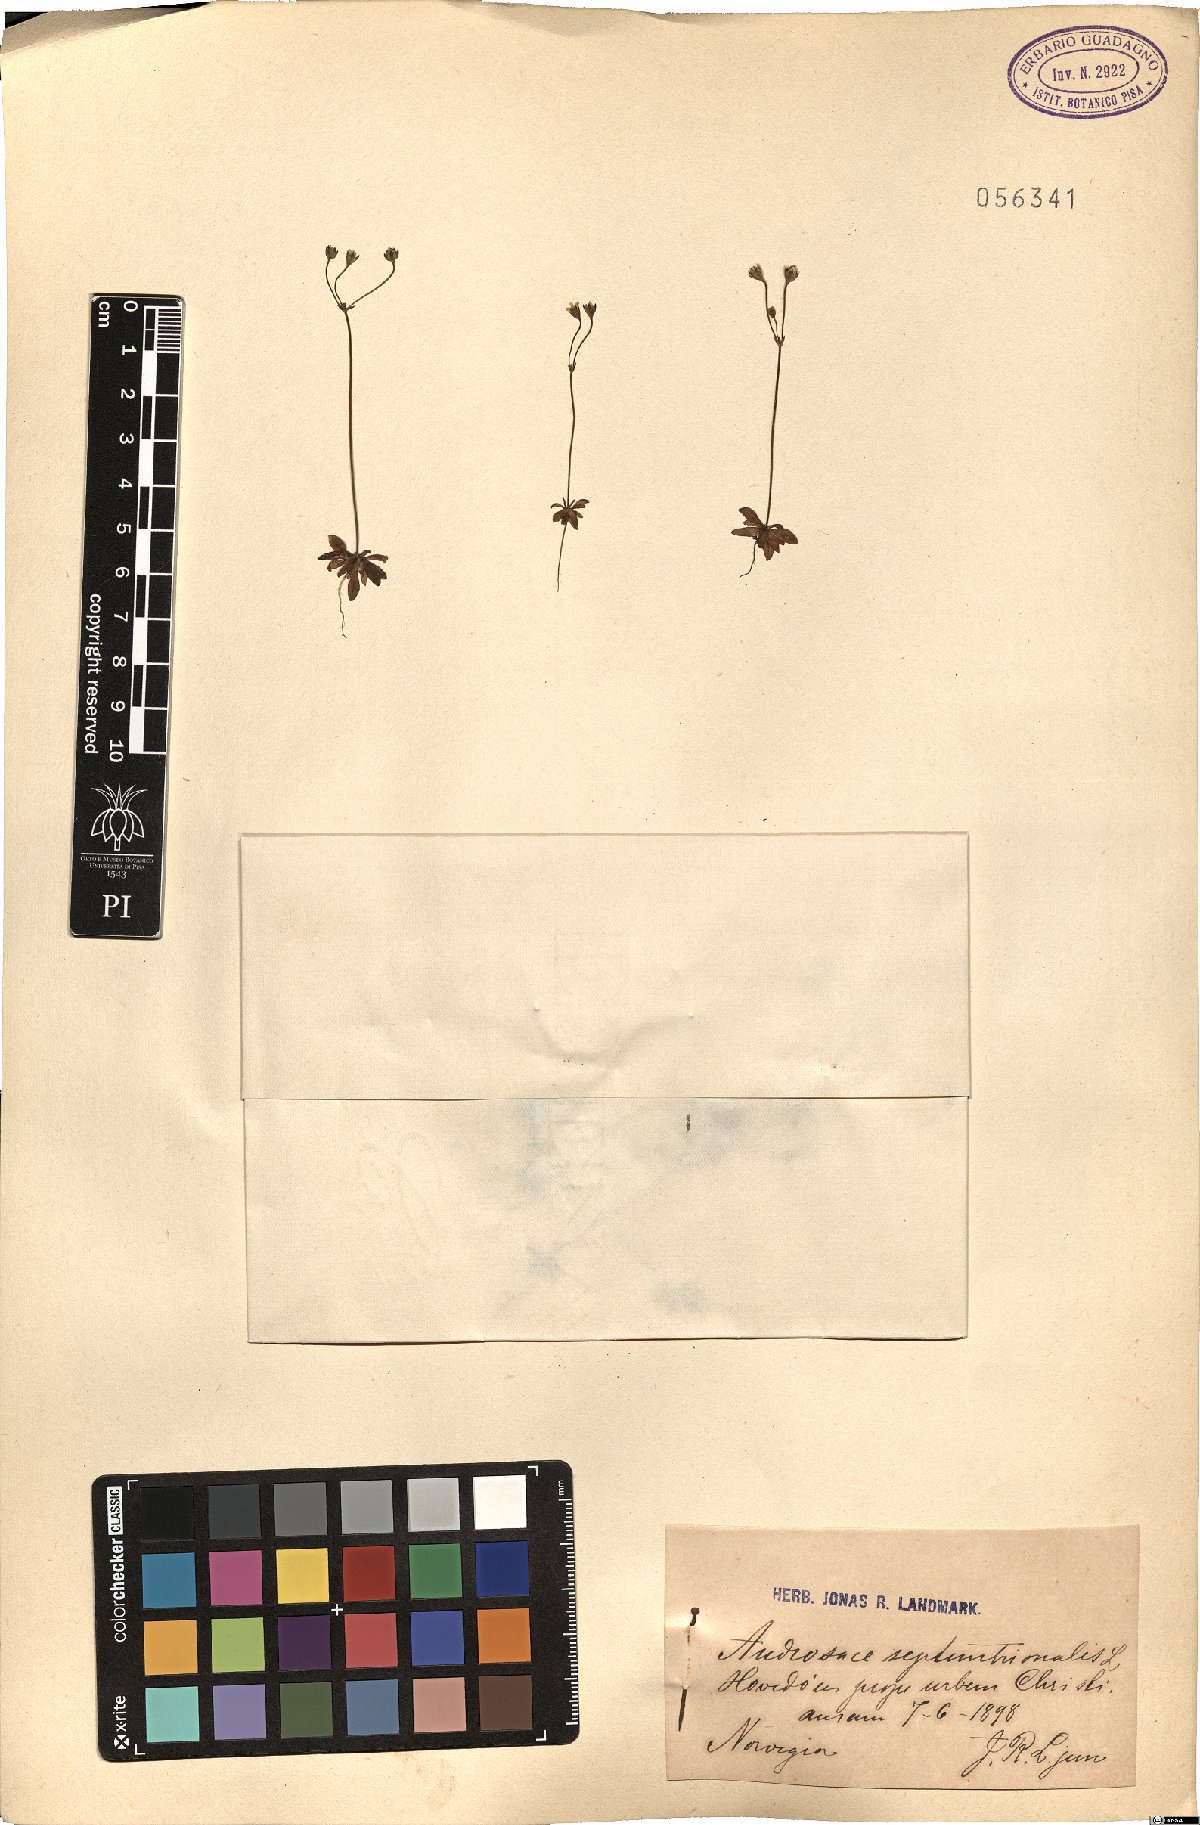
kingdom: Plantae
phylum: Tracheophyta
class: Magnoliopsida
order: Ericales
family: Primulaceae
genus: Androsace
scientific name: Androsace septentrionalis
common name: Hairy northern fairy-candelabra
